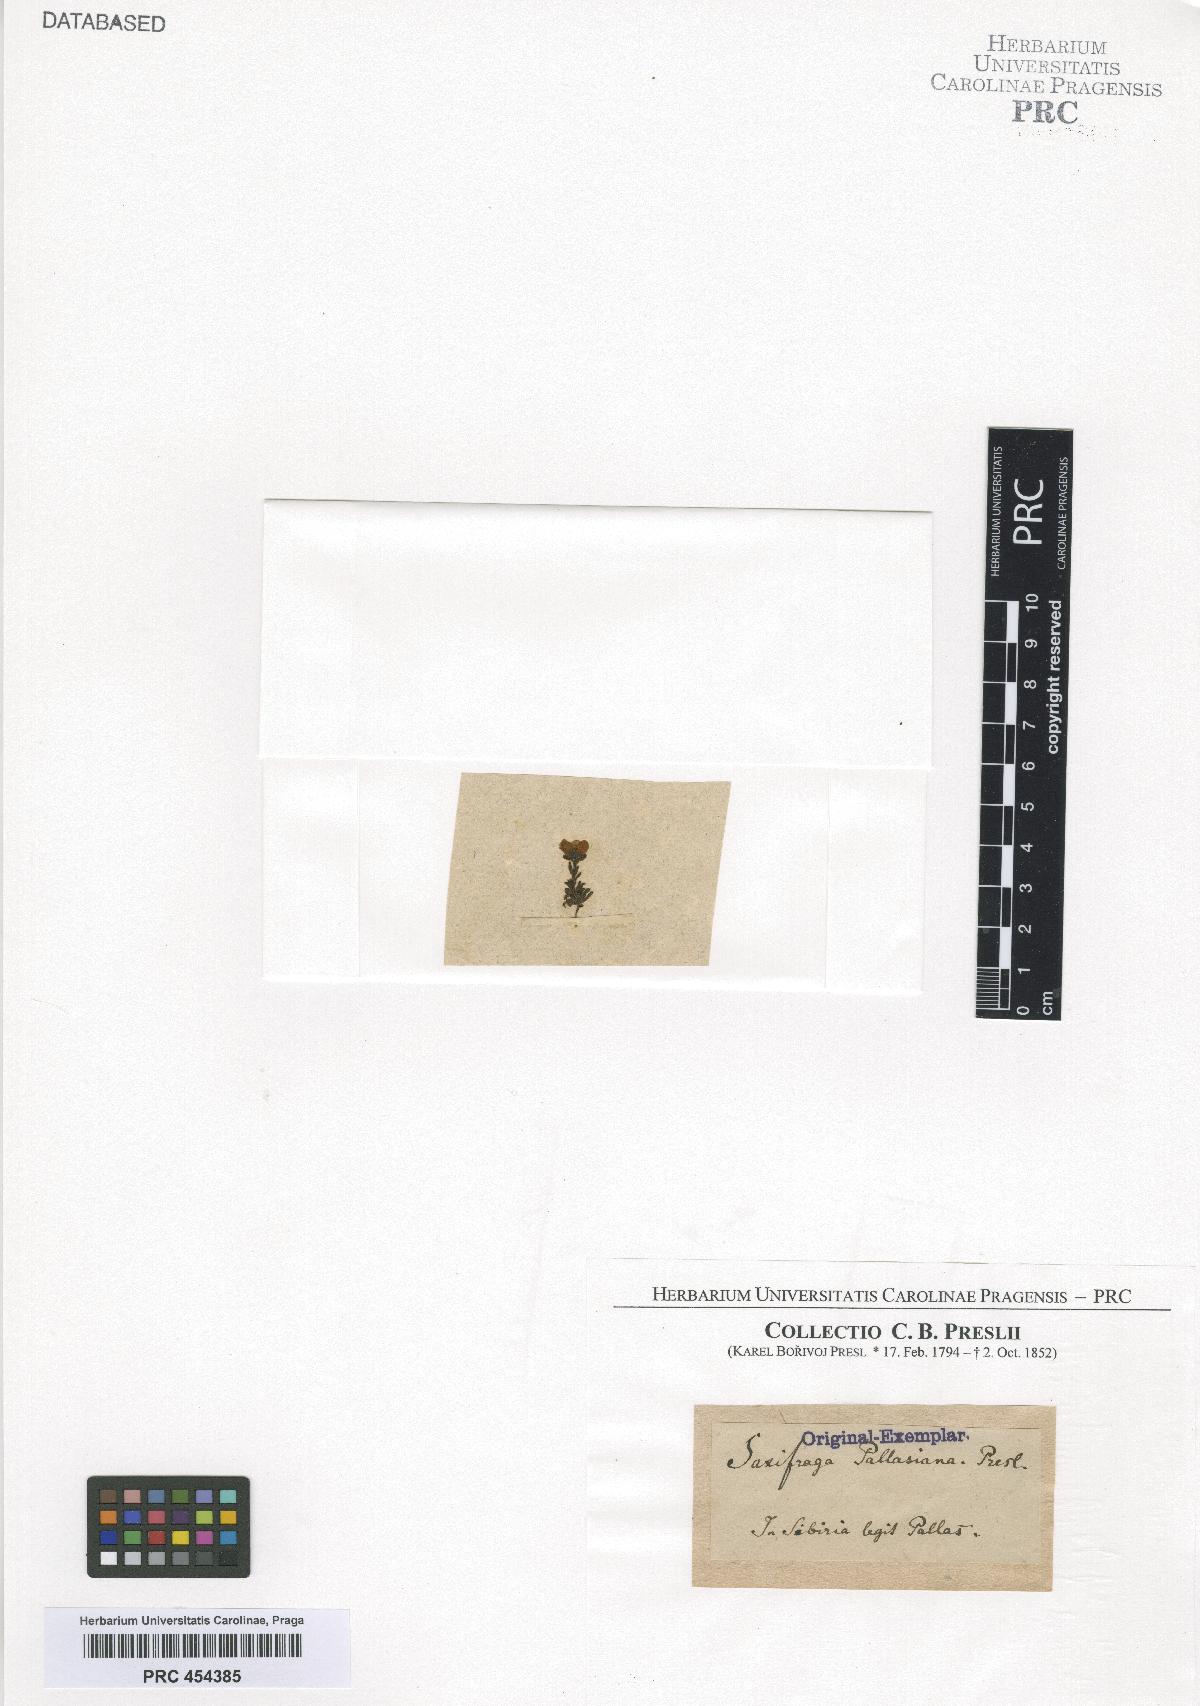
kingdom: Plantae
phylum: Tracheophyta
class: Magnoliopsida
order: Saxifragales
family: Saxifragaceae
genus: Saxifraga
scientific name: Saxifraga serpyllifolia
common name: Thyme-leaved saxifrage
